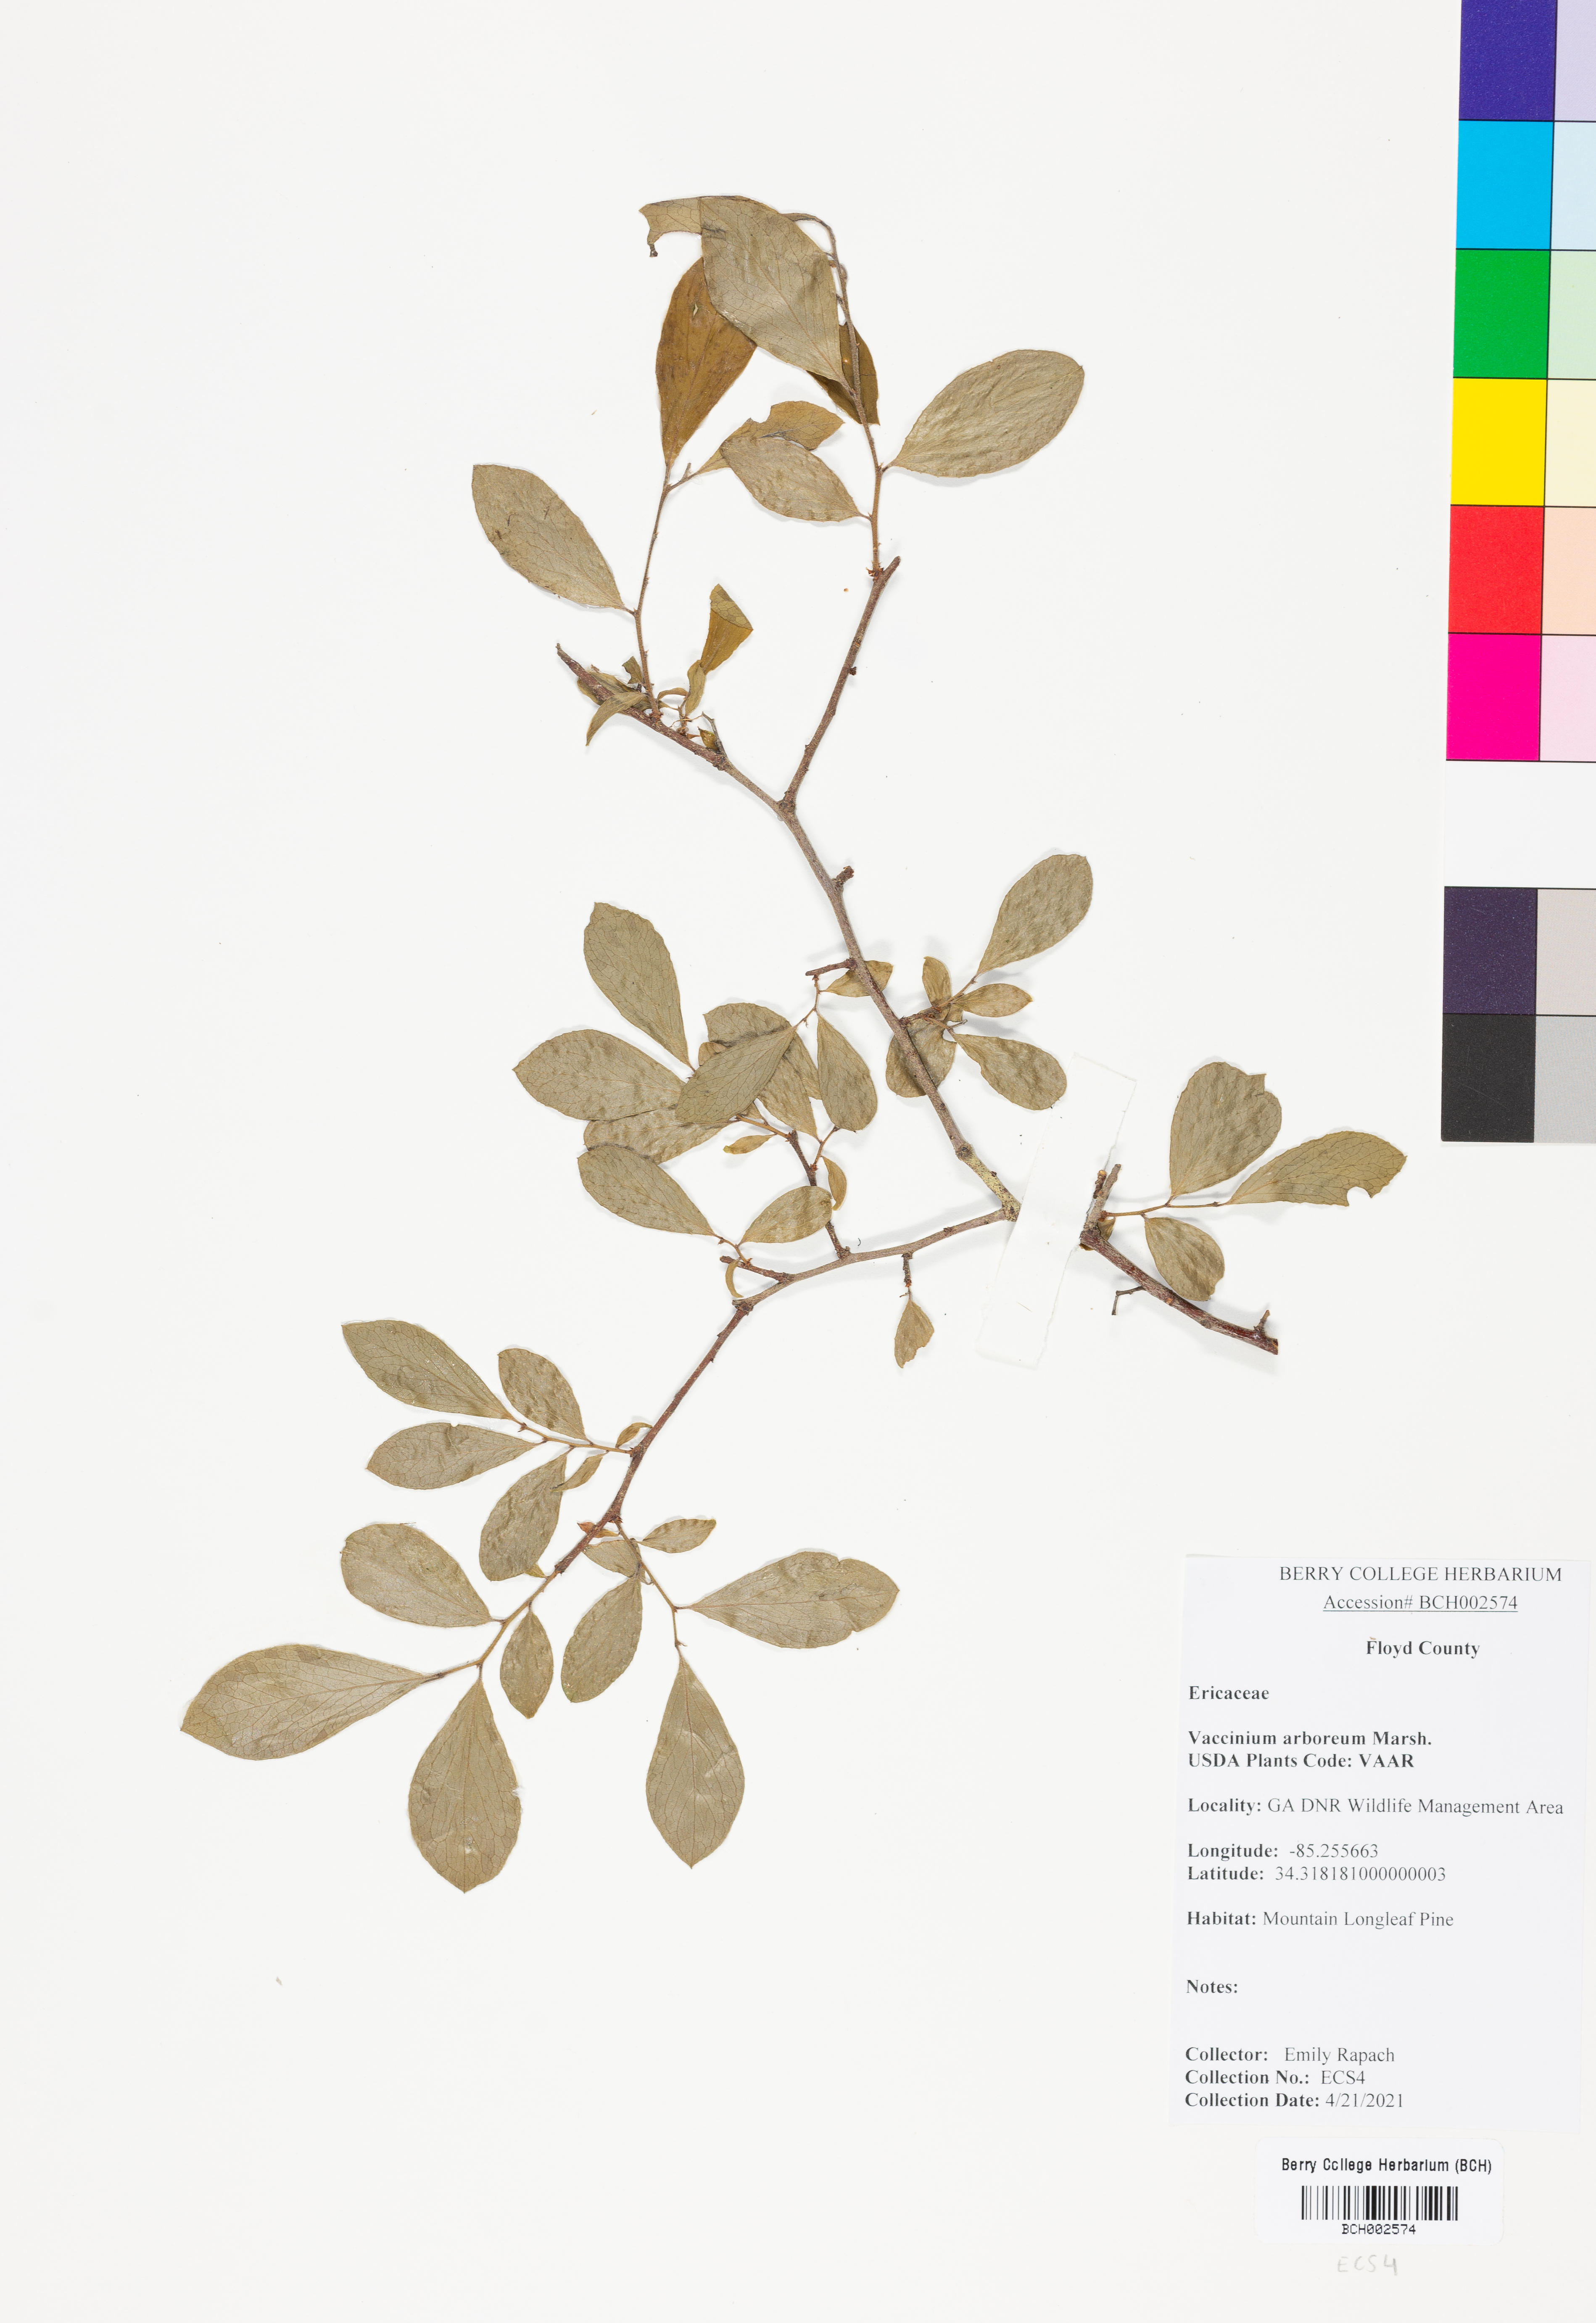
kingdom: Plantae
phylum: Tracheophyta
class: Magnoliopsida
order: Ericales
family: Ericaceae
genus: Vaccinium
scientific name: Vaccinium arboreum
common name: Farkleberry
